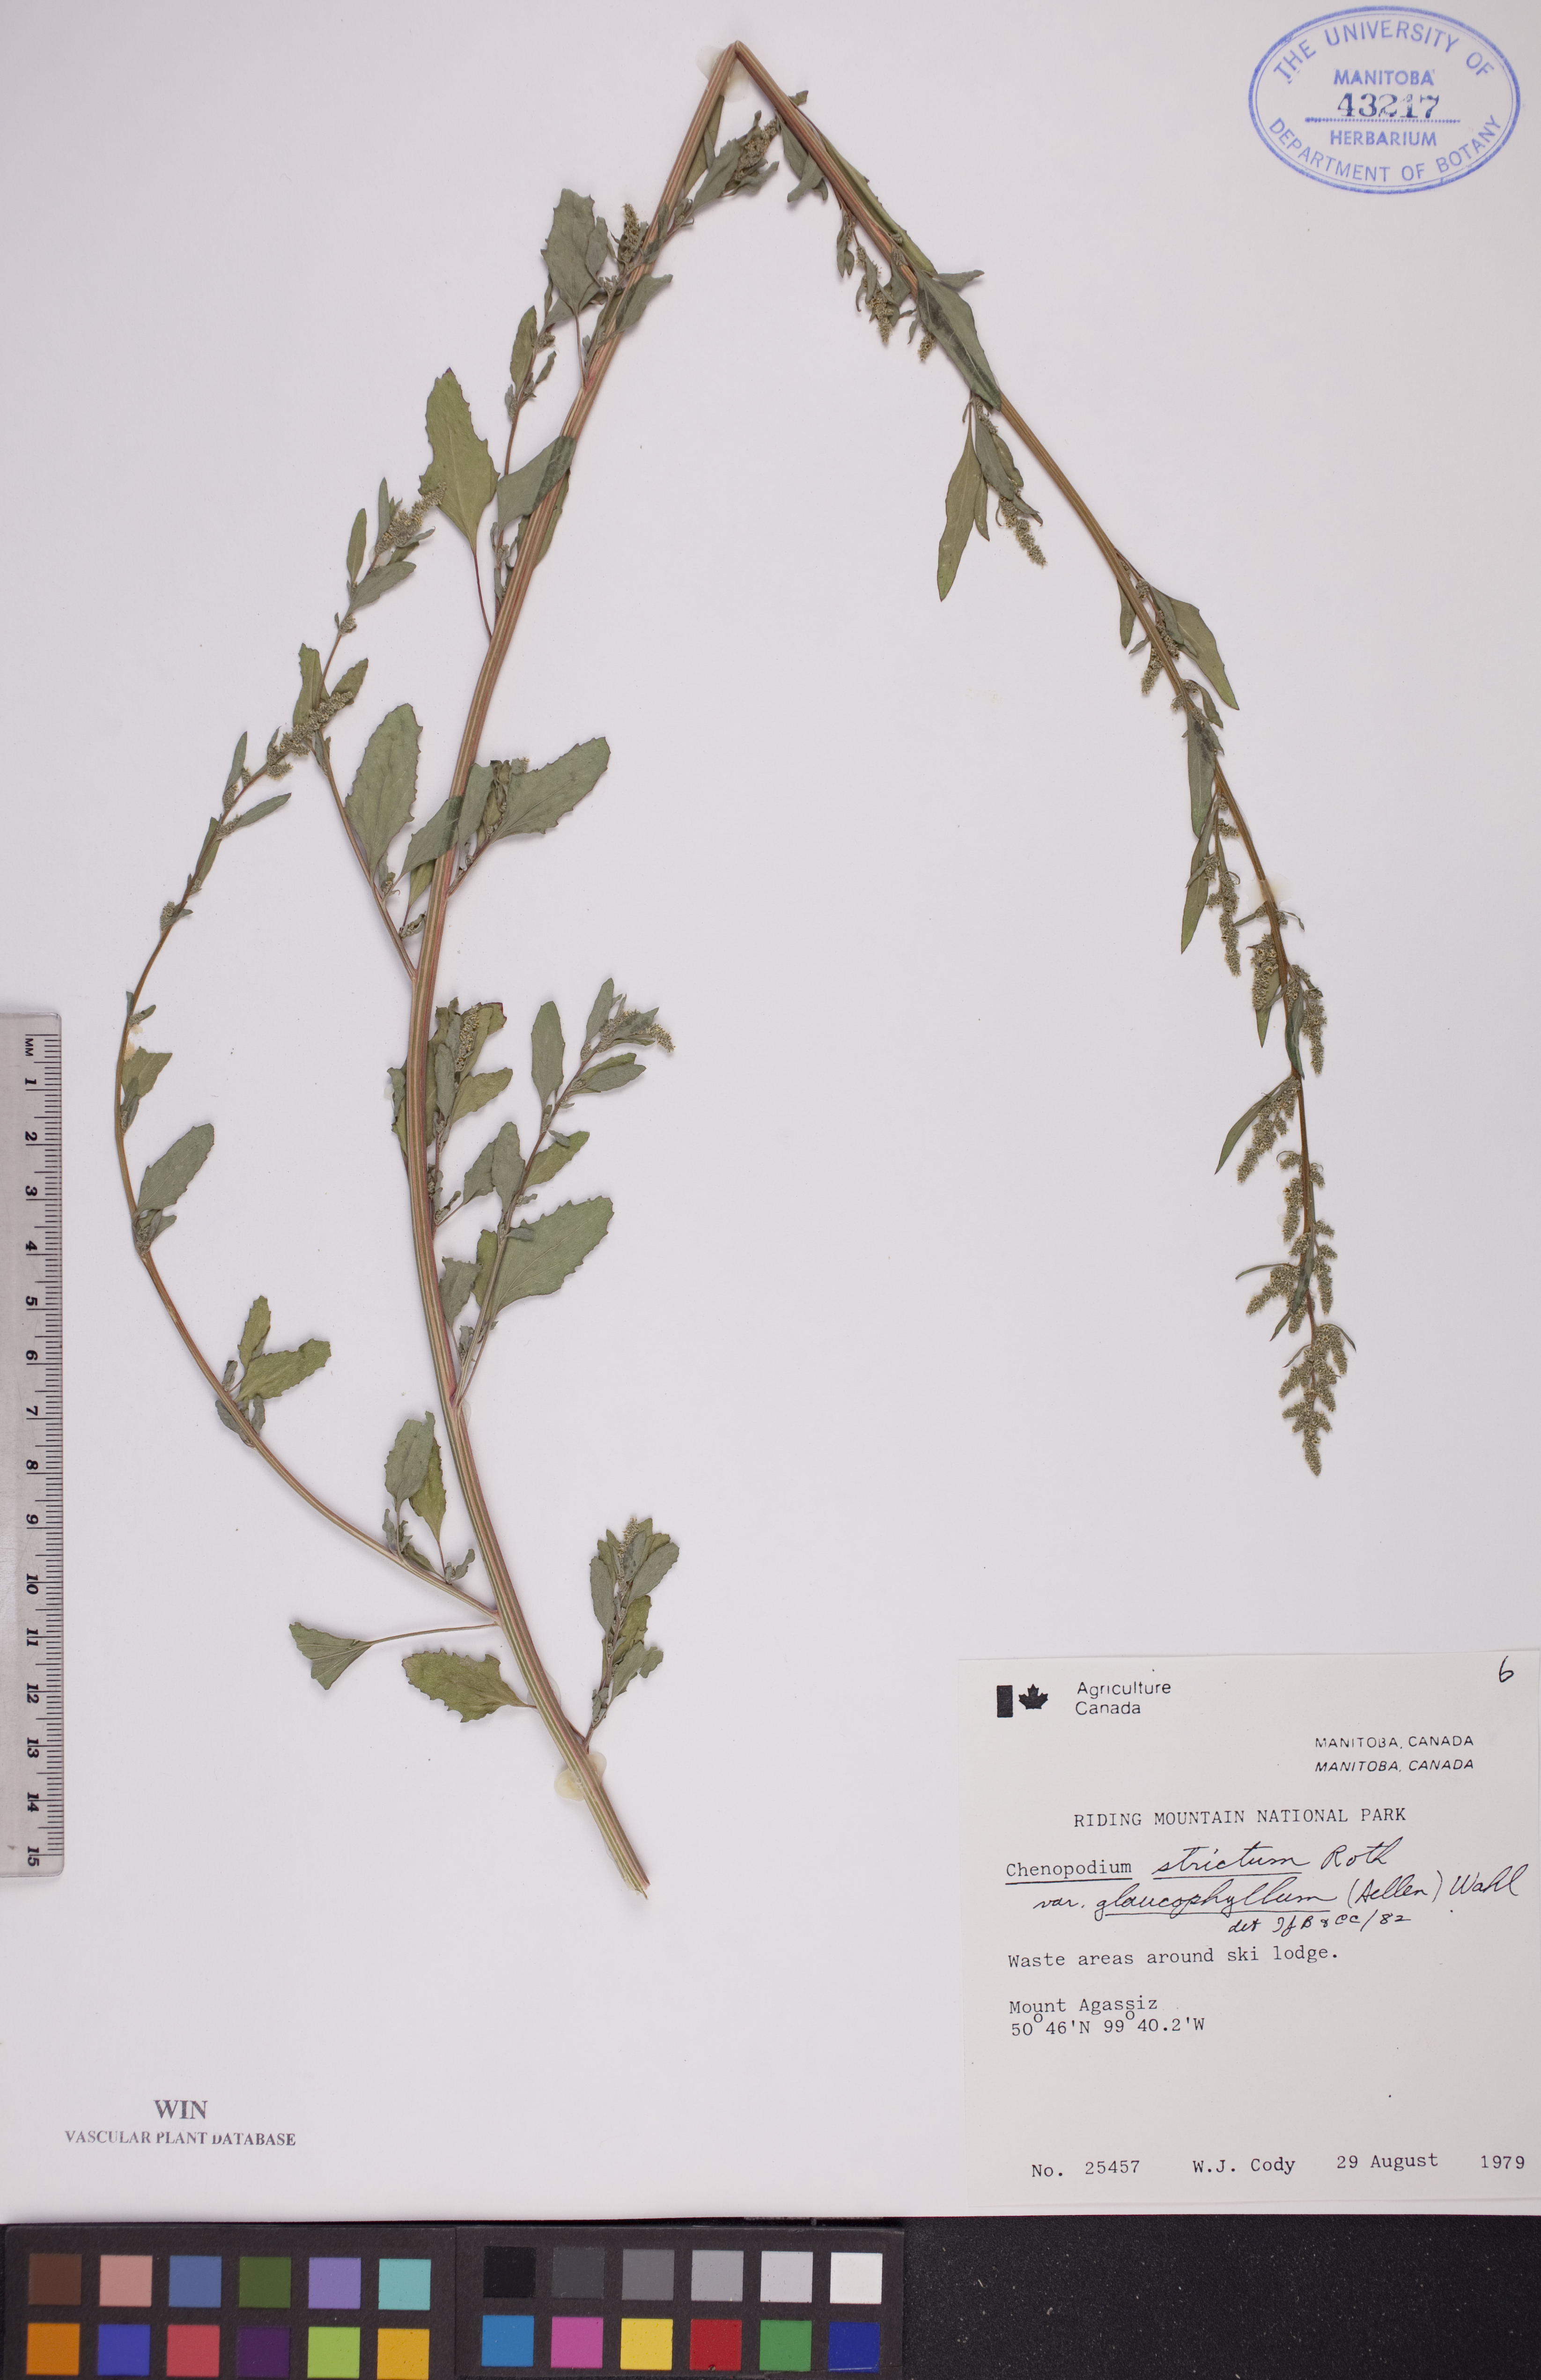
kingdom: Plantae
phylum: Tracheophyta
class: Magnoliopsida
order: Caryophyllales
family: Amaranthaceae
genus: Chenopodium
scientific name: Chenopodium betaceum
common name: Striped goosefoot
